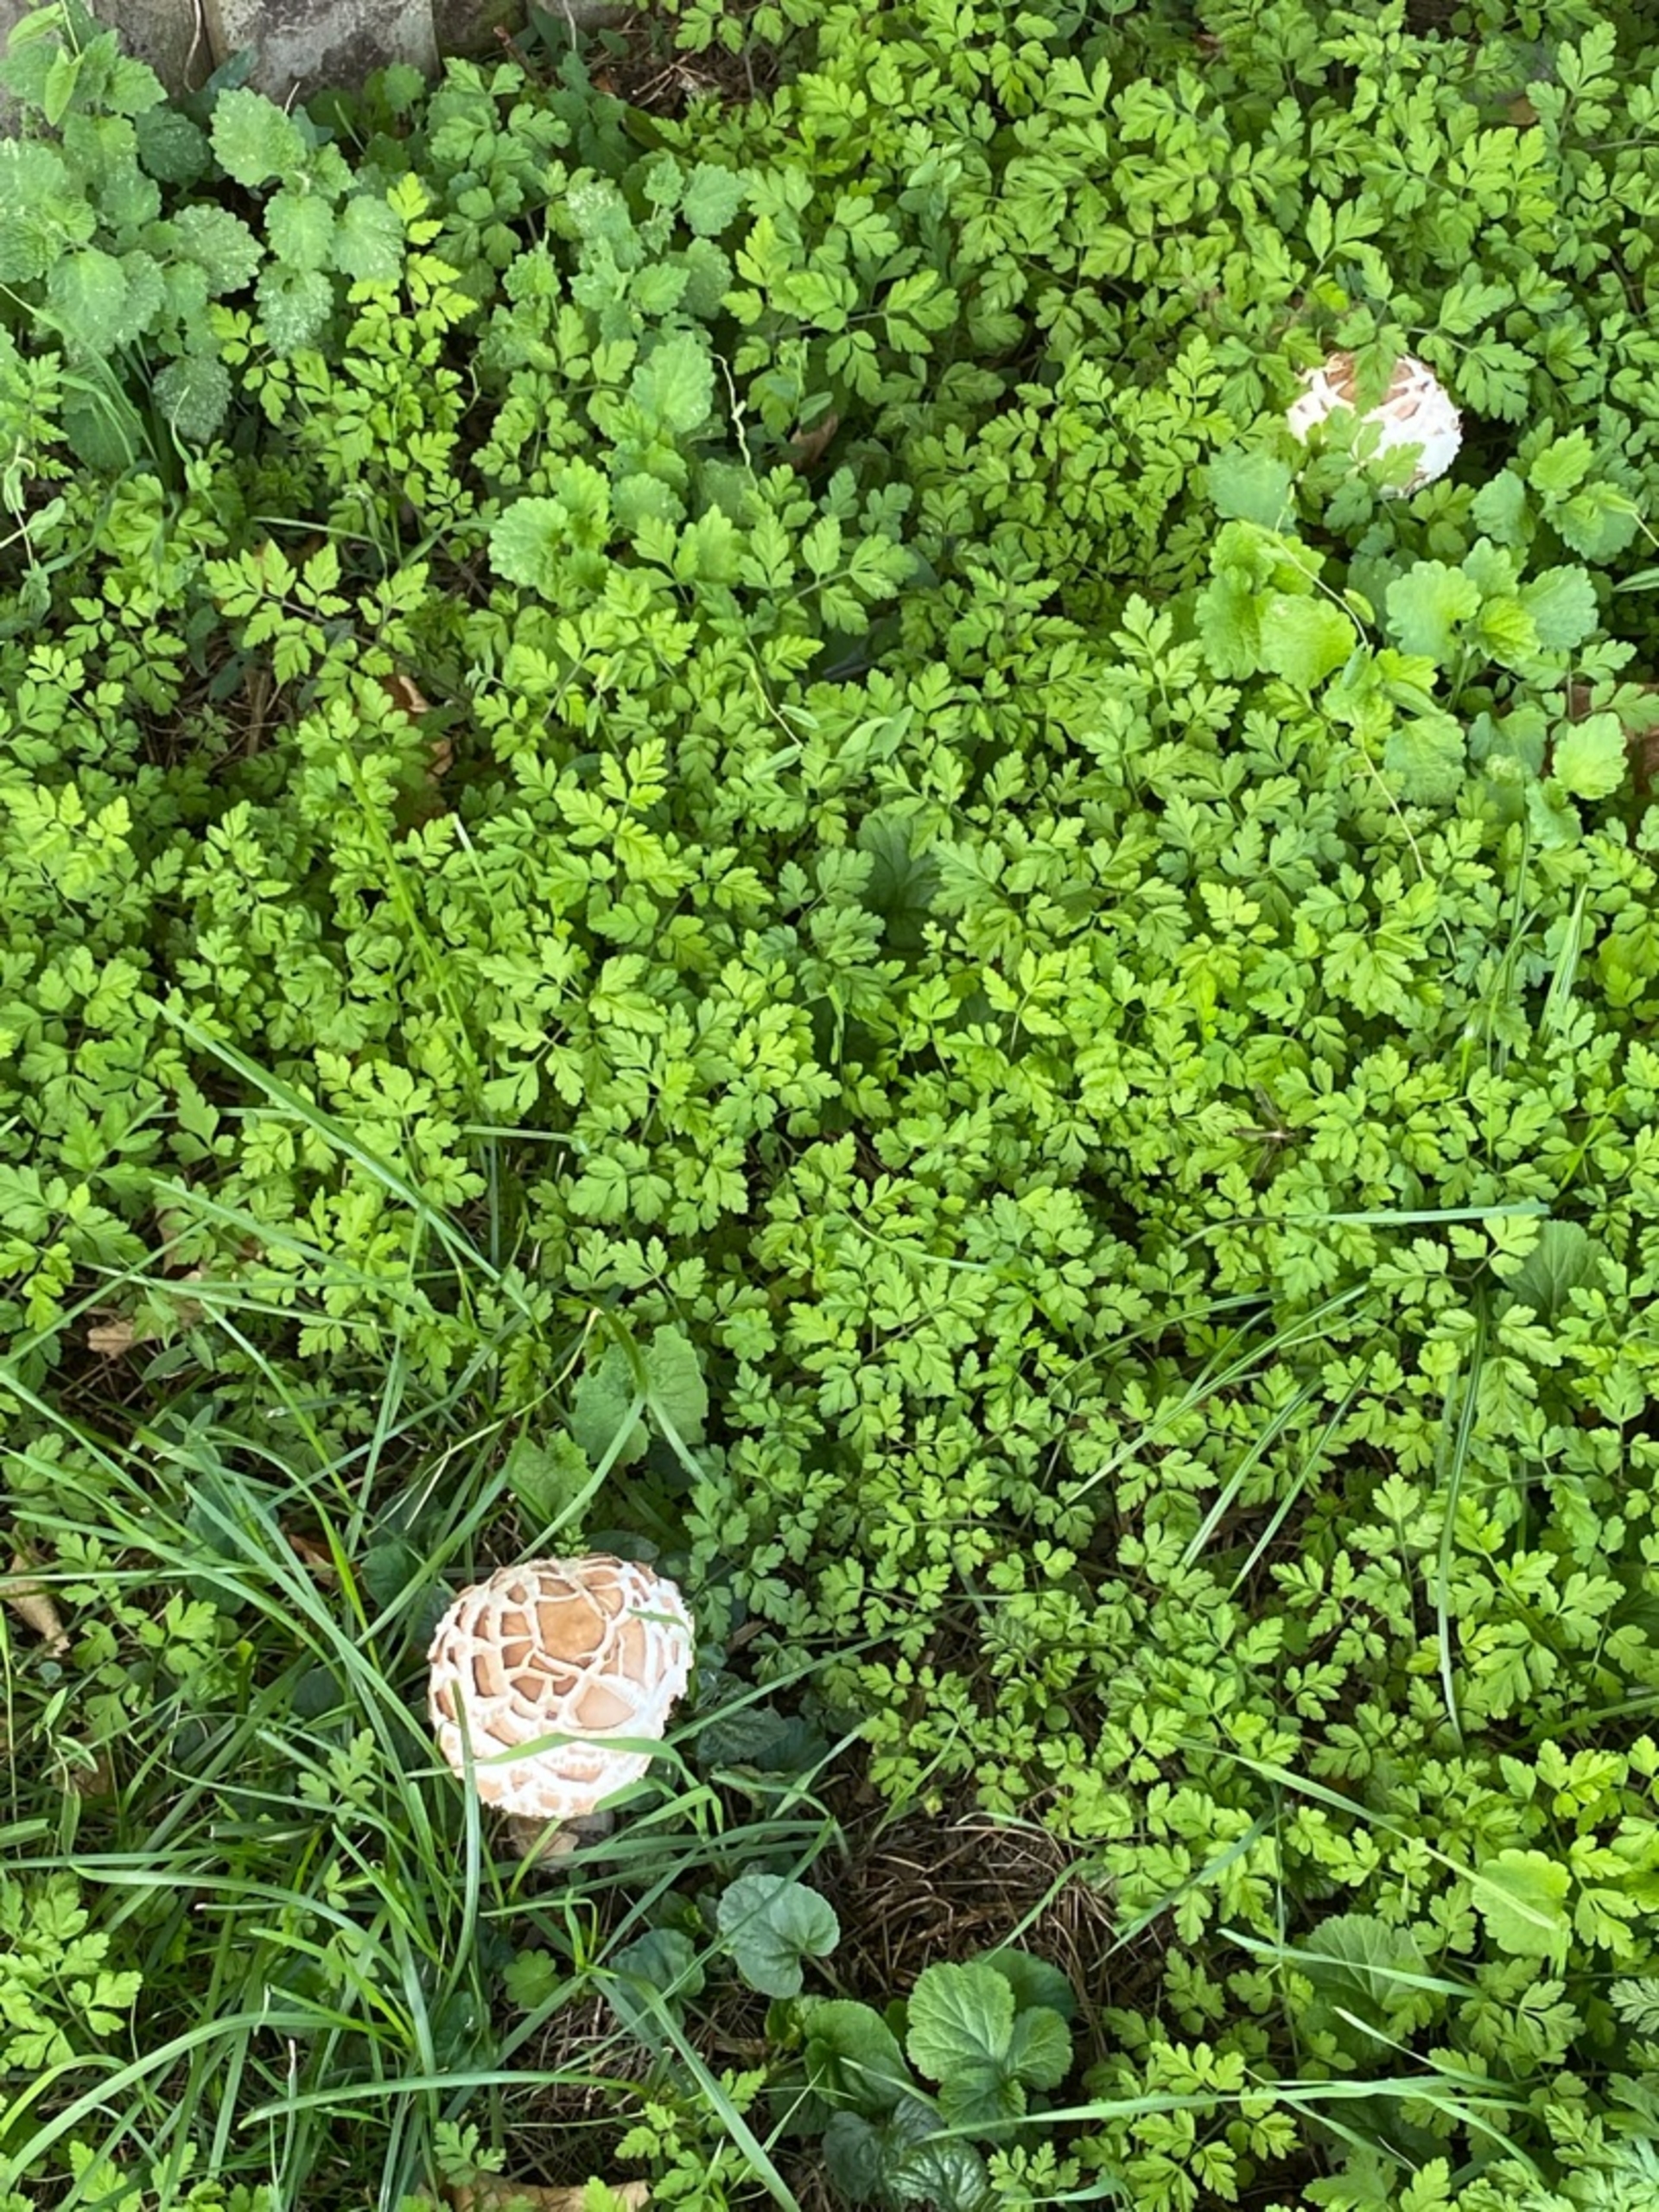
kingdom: Plantae
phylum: Tracheophyta
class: Magnoliopsida
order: Apiales
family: Apiaceae
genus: Chaerophyllum
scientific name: Chaerophyllum temulum
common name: Almindelig hulsvøb
